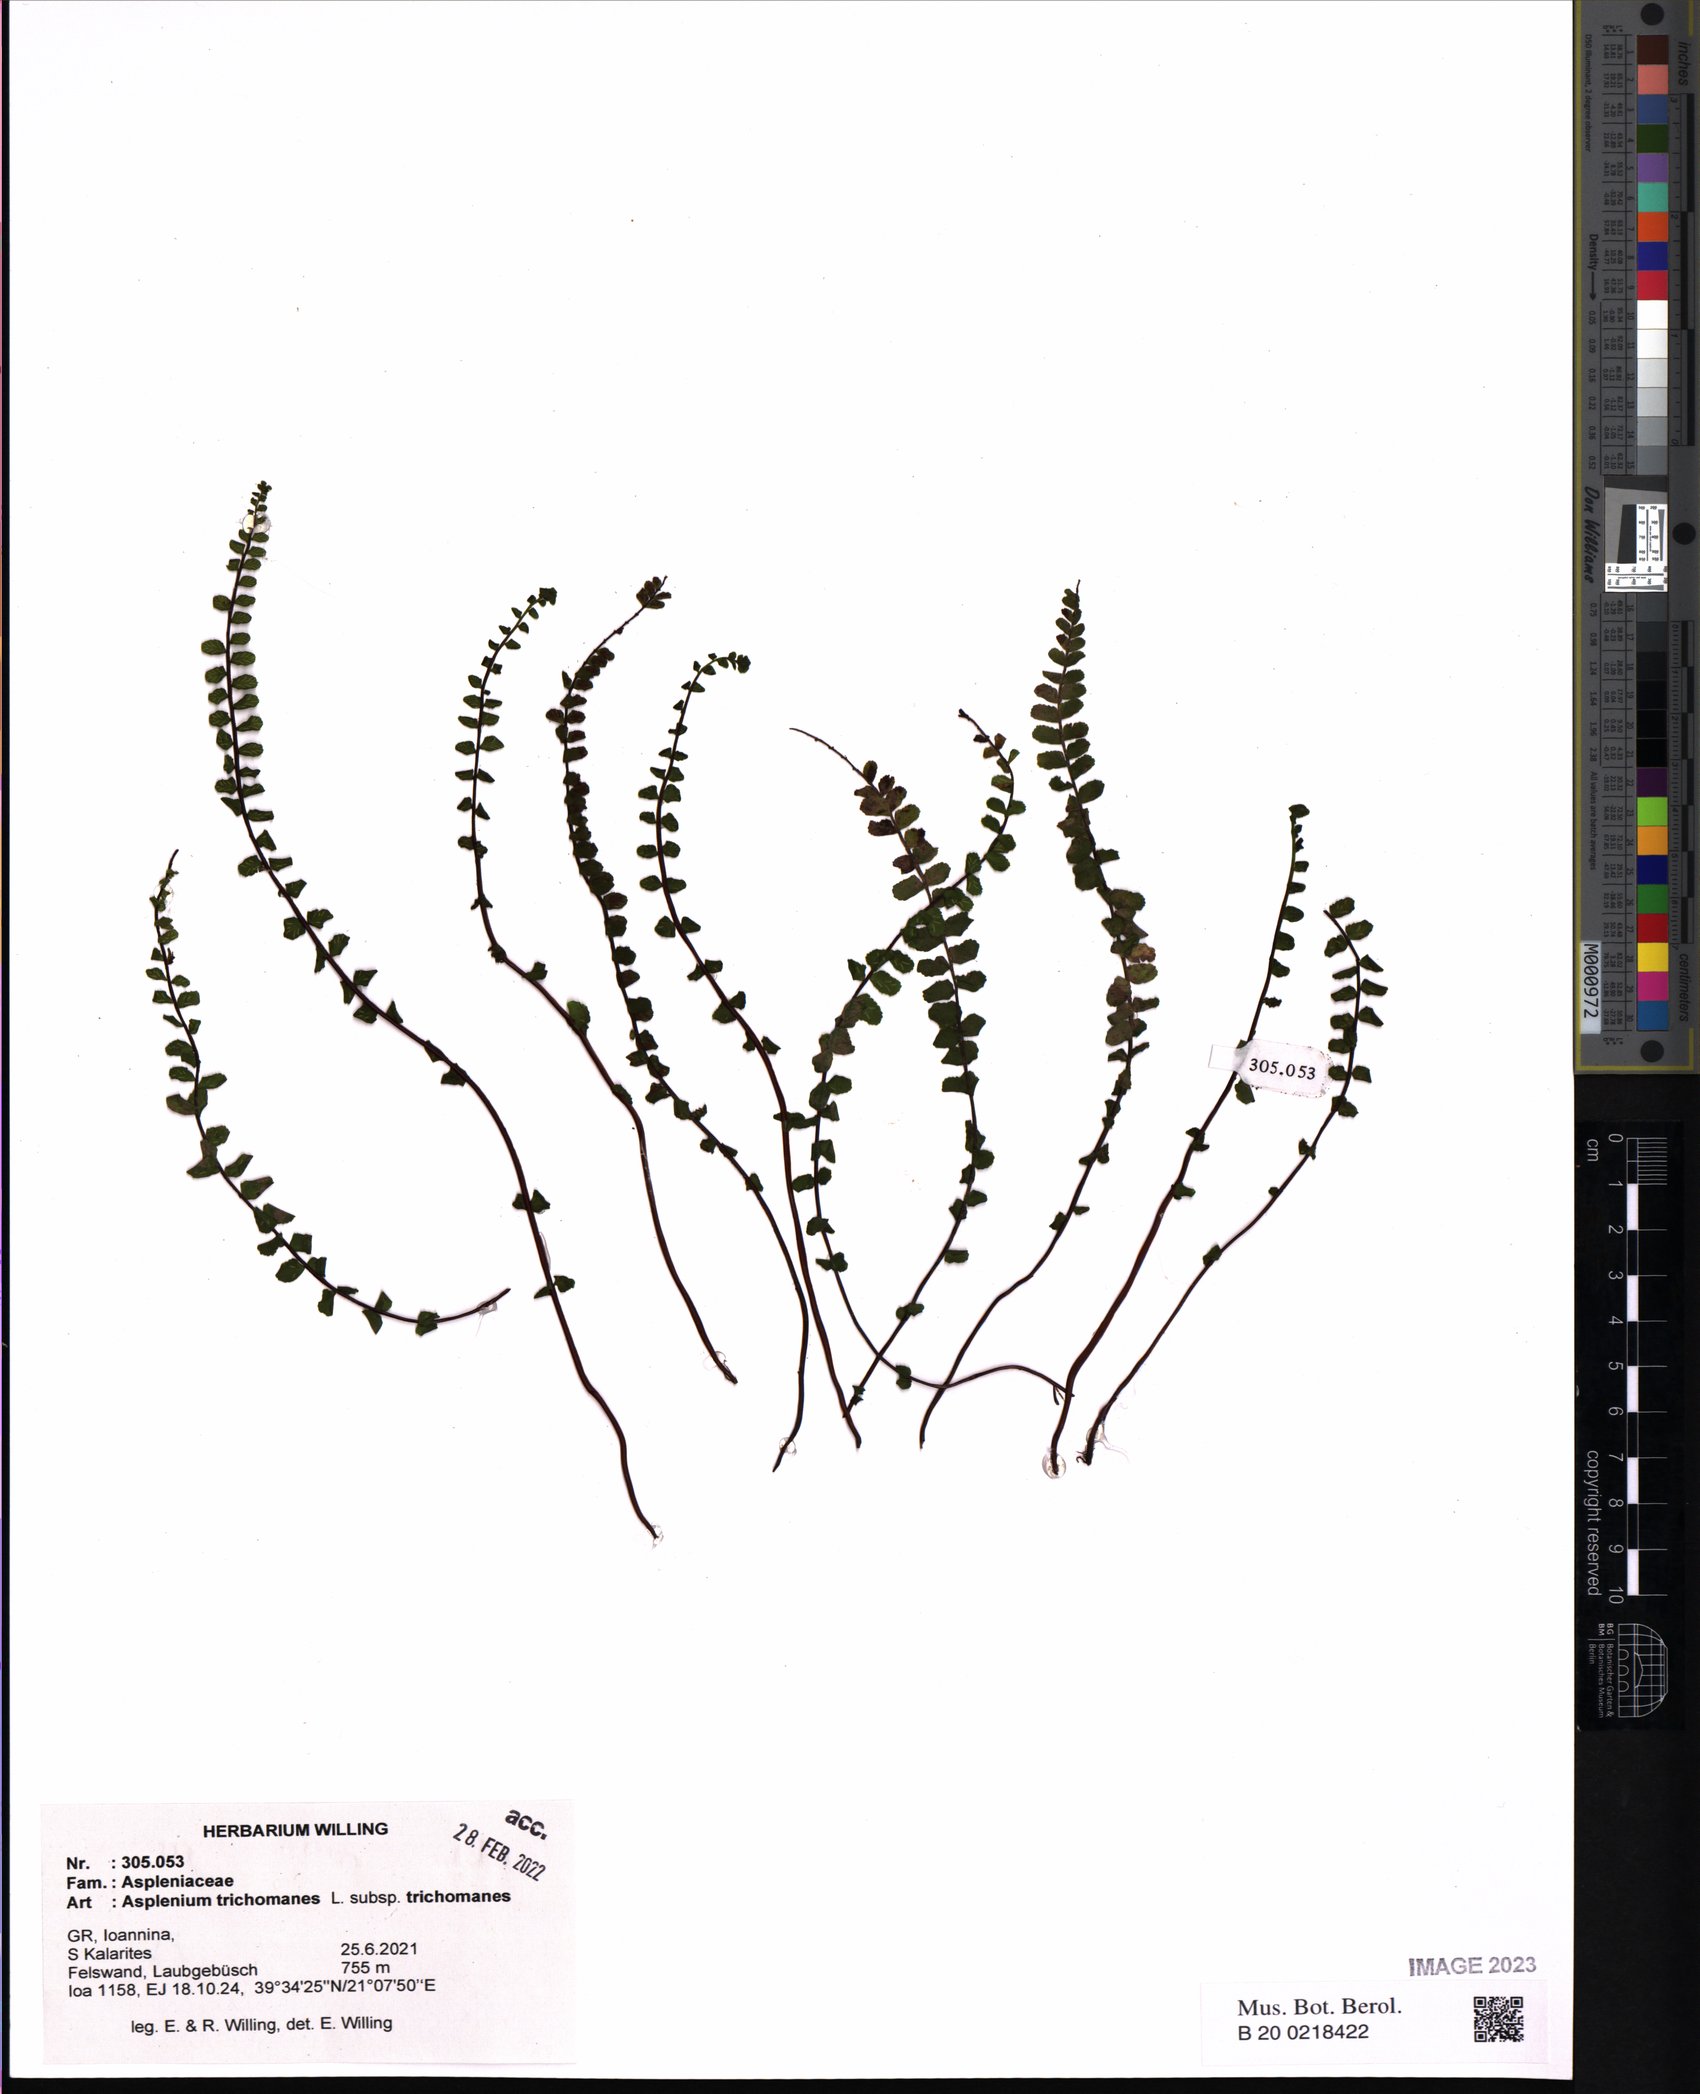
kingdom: Plantae
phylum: Tracheophyta
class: Polypodiopsida
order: Polypodiales
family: Aspleniaceae
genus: Asplenium
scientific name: Asplenium trichomanes
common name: Maidenhair spleenwort
